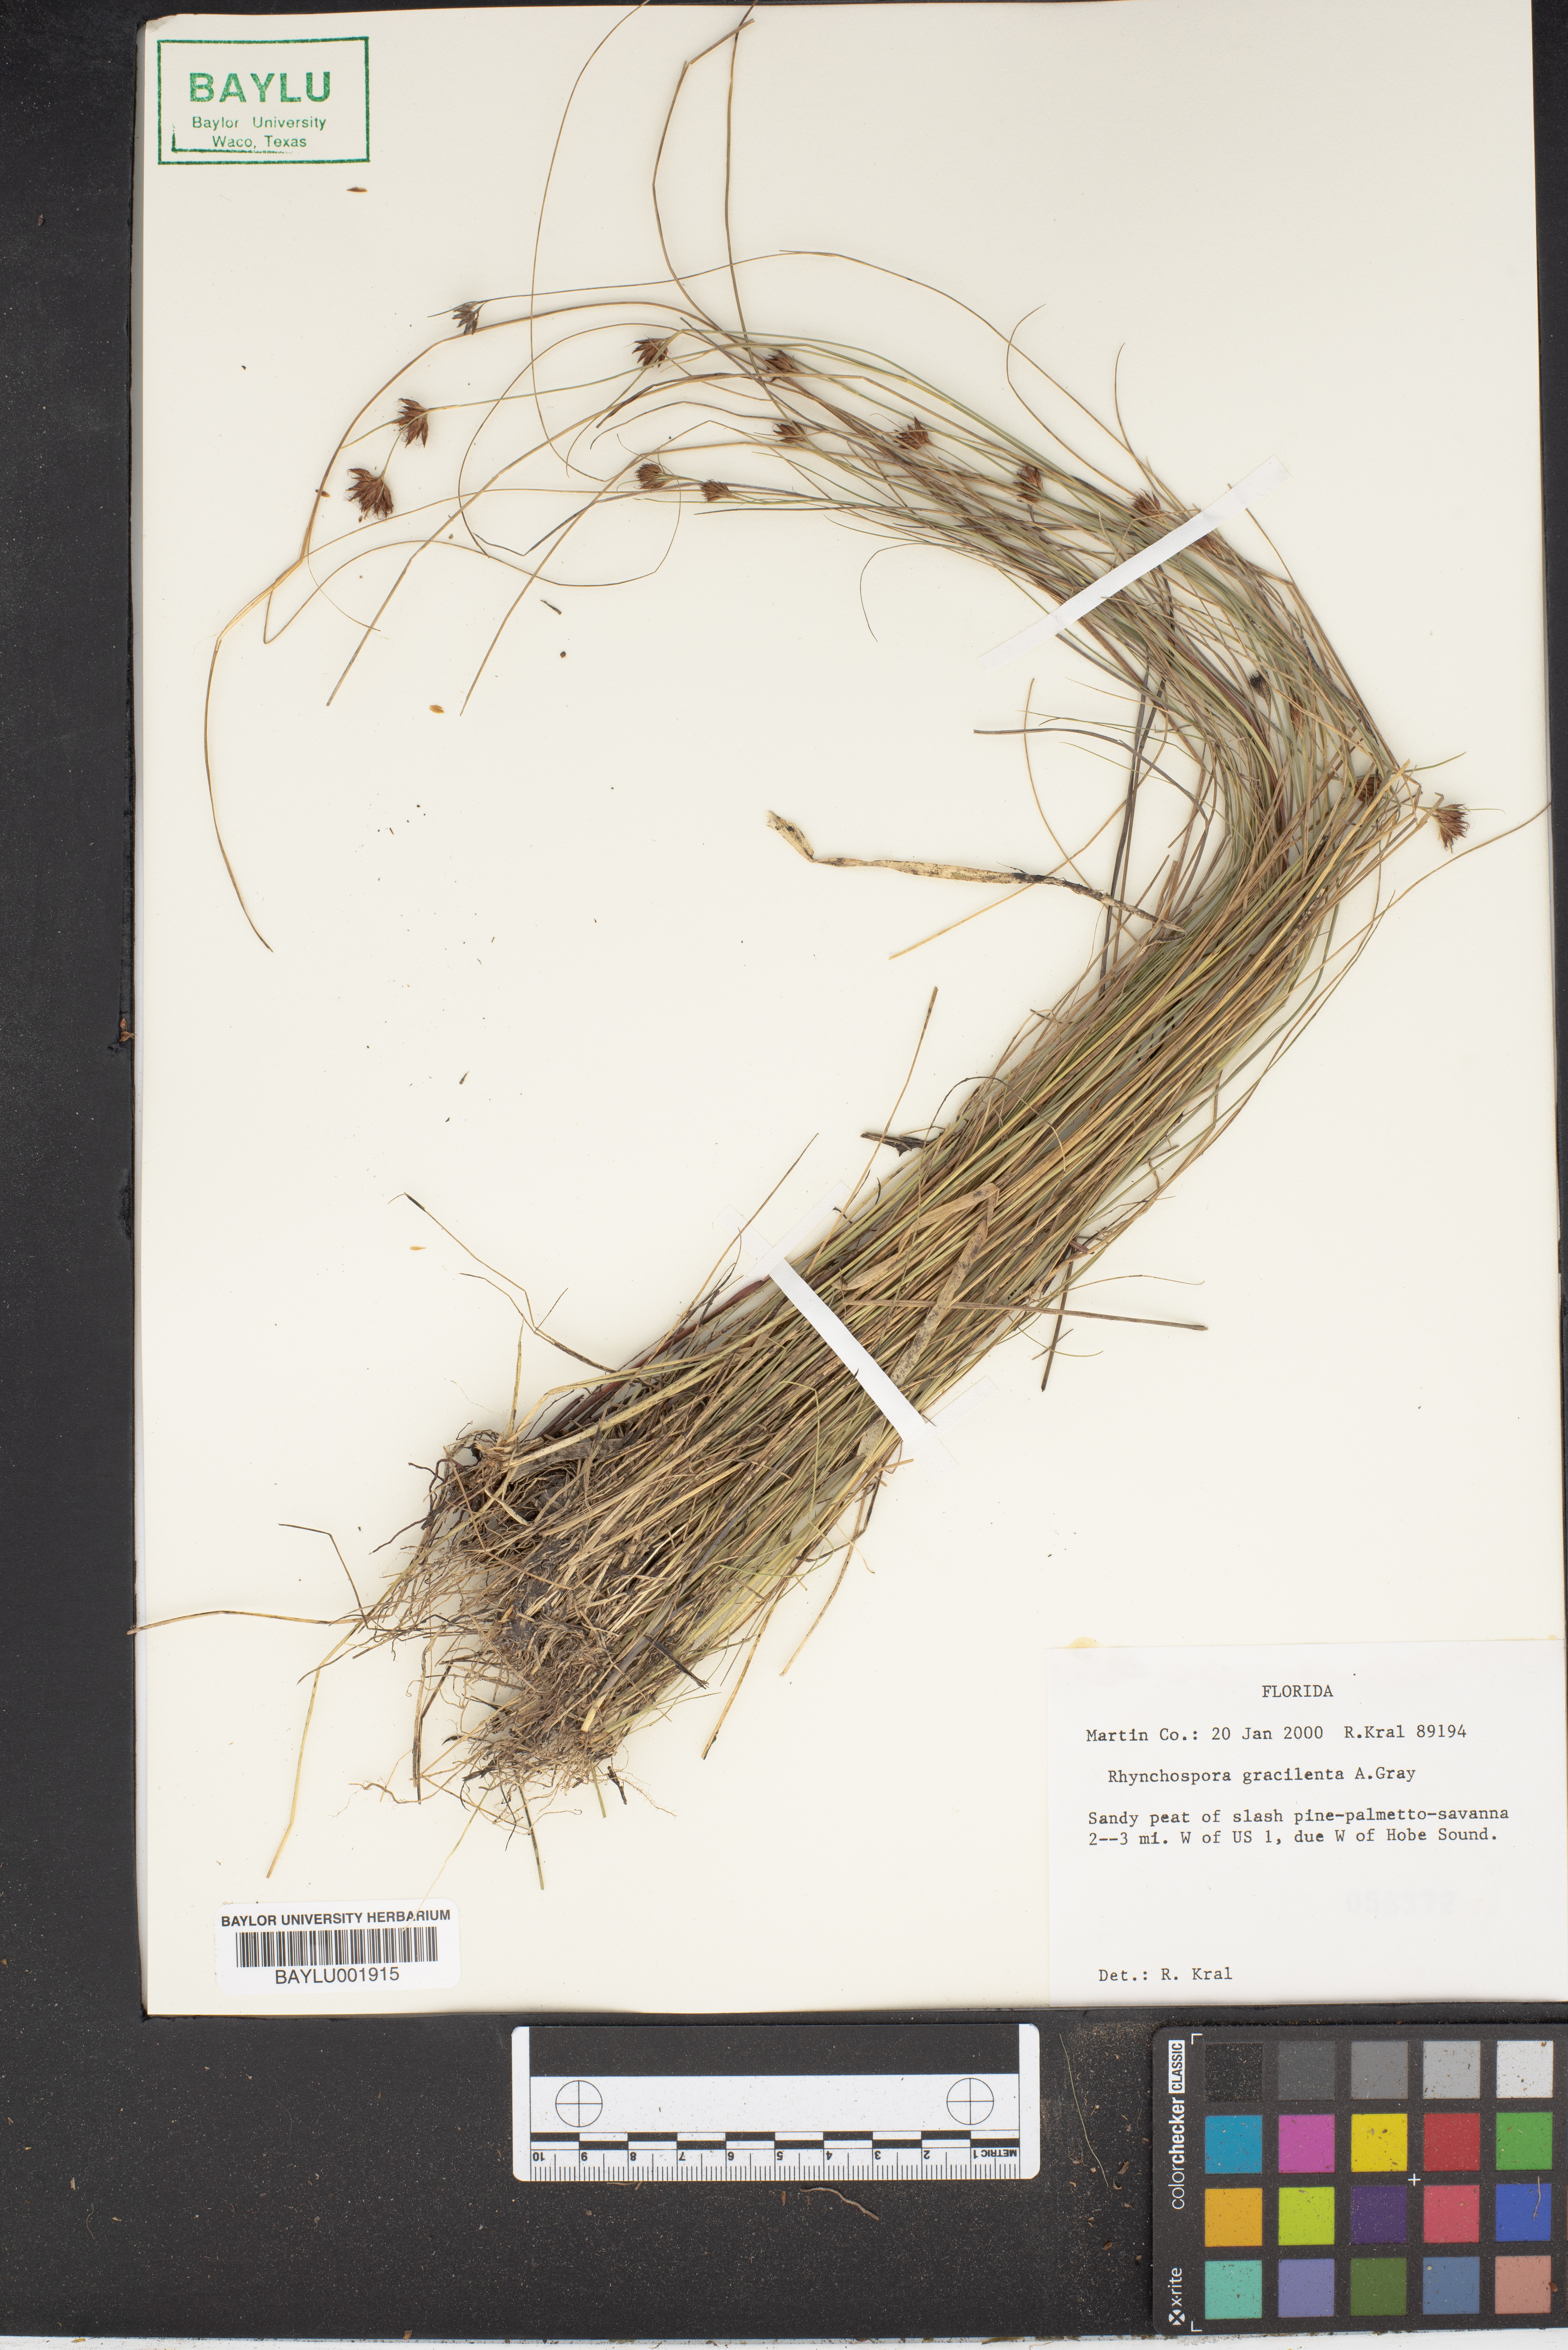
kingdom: Plantae
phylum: Tracheophyta
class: Liliopsida
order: Poales
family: Cyperaceae
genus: Rhynchospora
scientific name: Rhynchospora gracilenta
